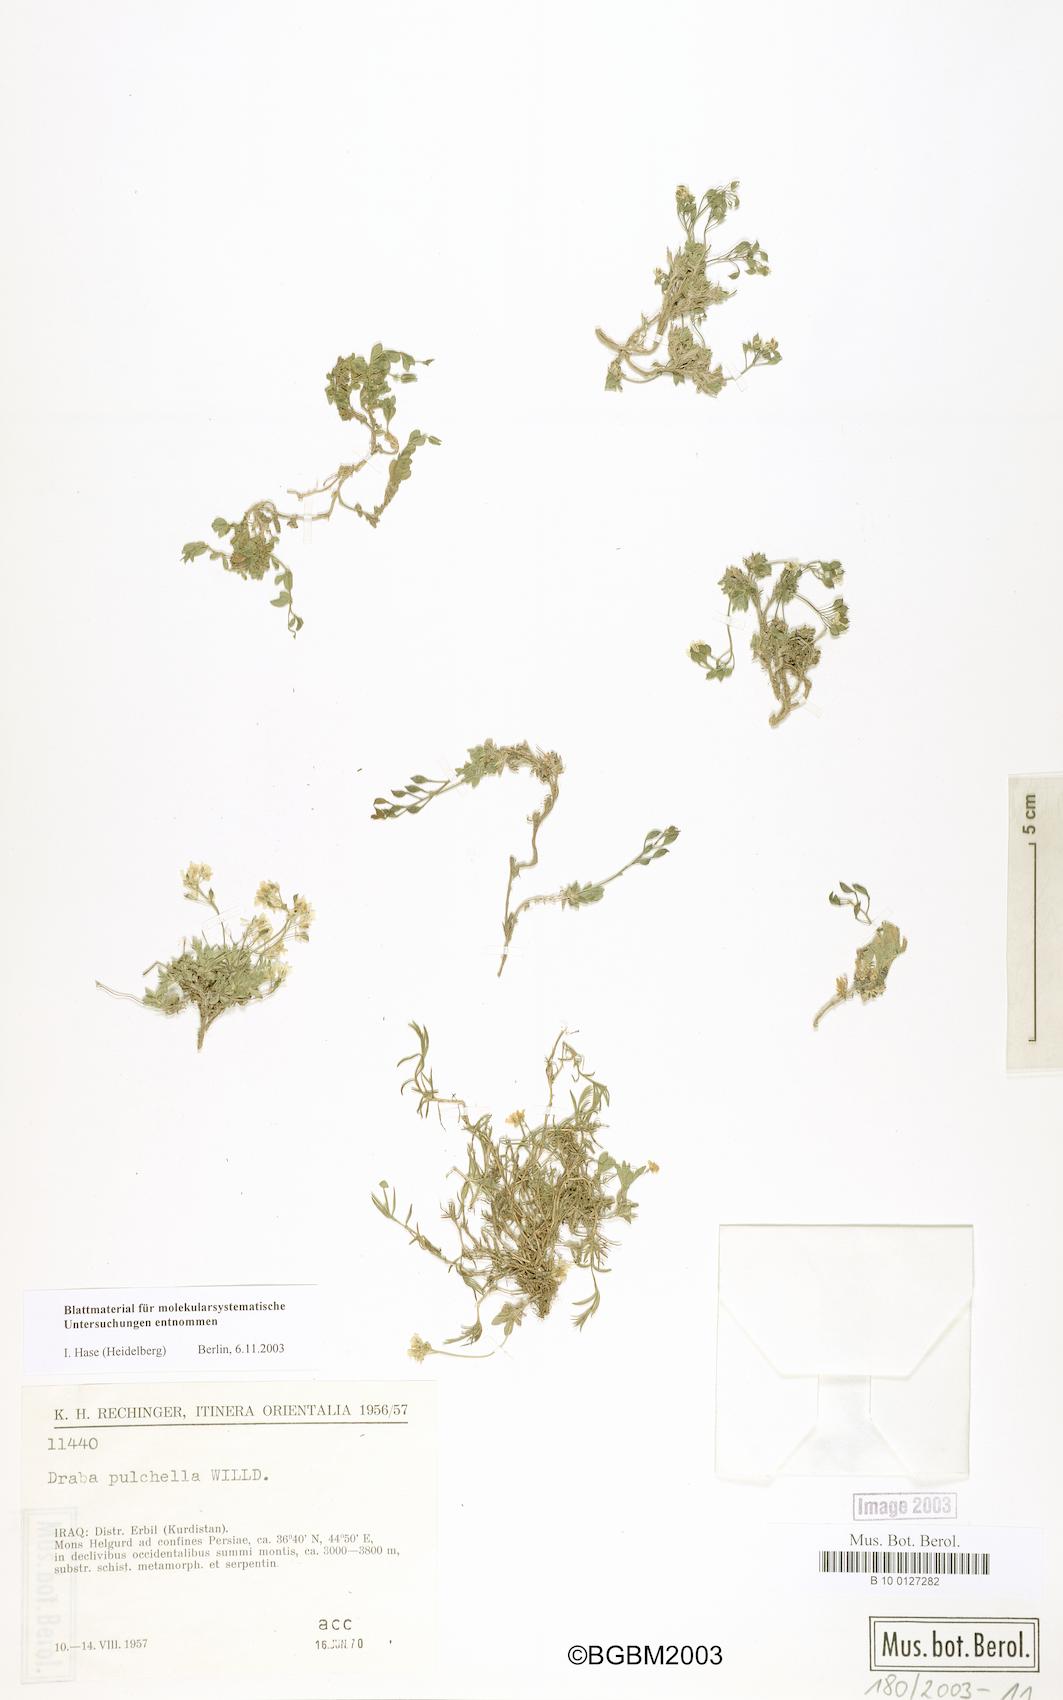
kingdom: Plantae
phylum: Tracheophyta
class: Magnoliopsida
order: Brassicales
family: Brassicaceae
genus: Draba
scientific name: Draba alpina
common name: Alpine draba
